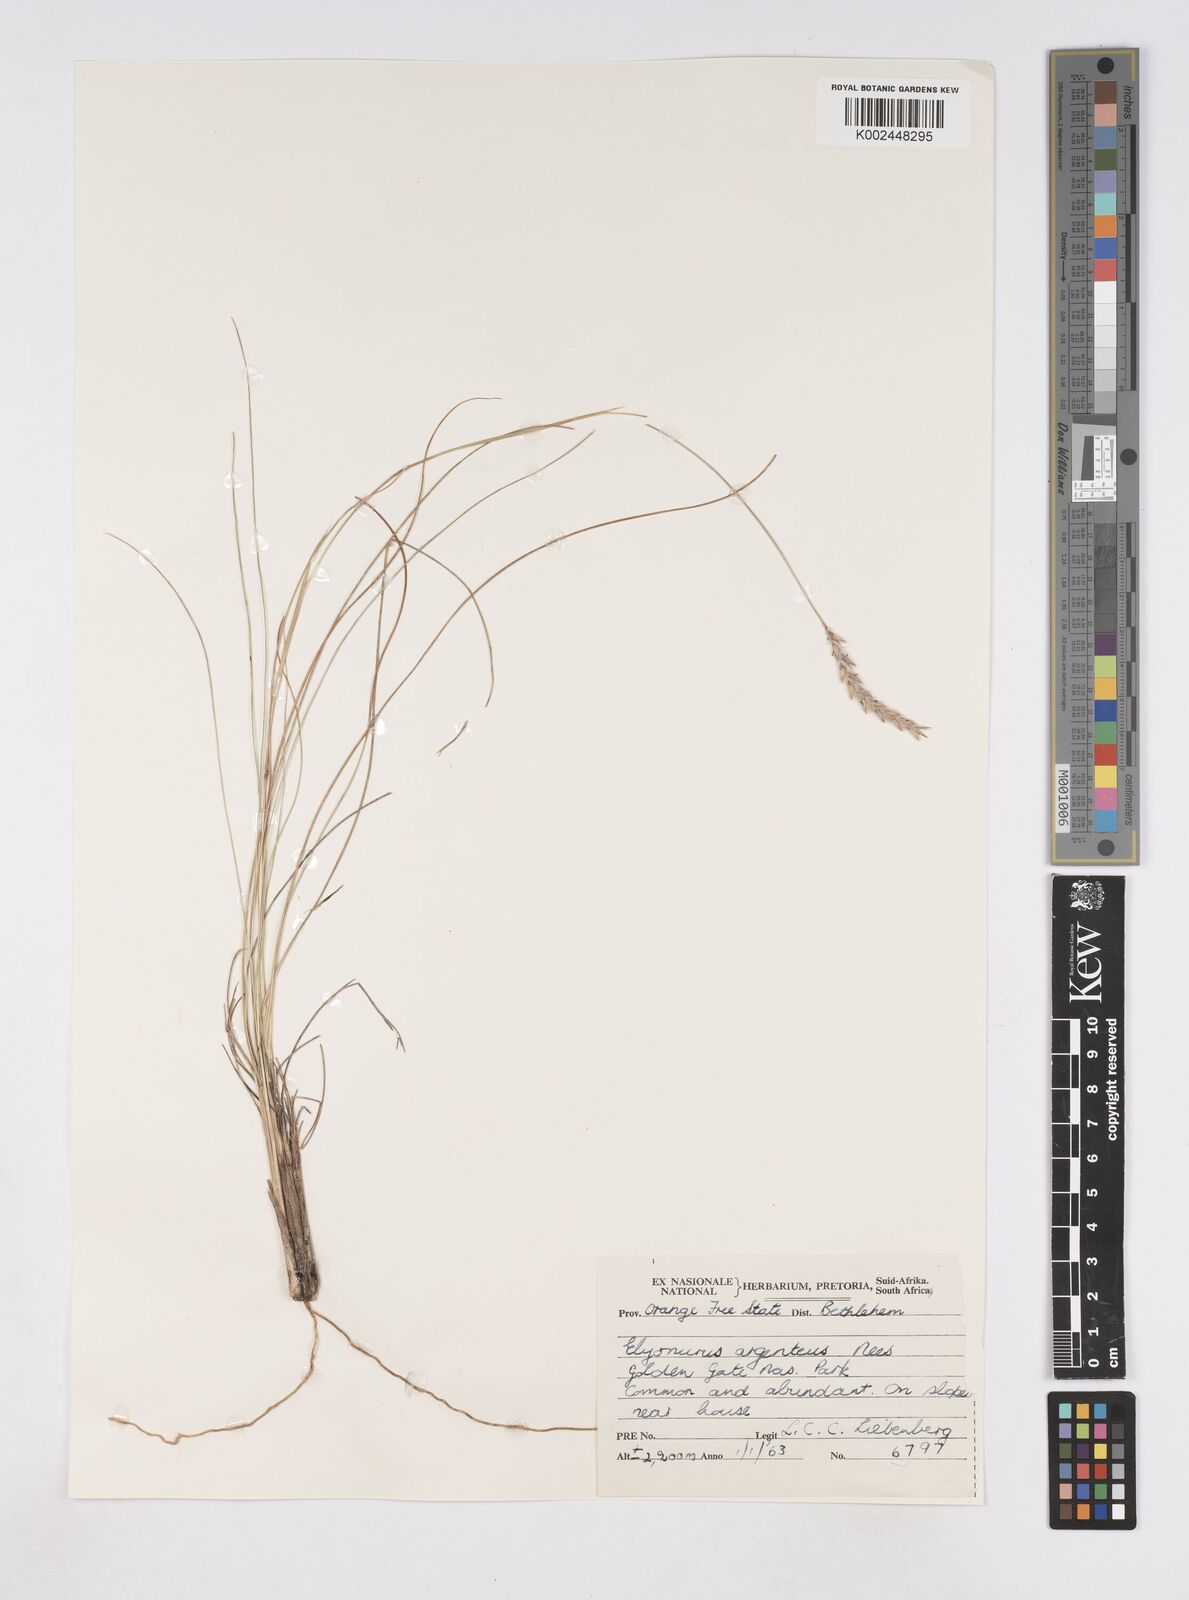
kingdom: Plantae
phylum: Tracheophyta
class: Liliopsida
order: Poales
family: Poaceae
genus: Elionurus
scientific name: Elionurus muticus
